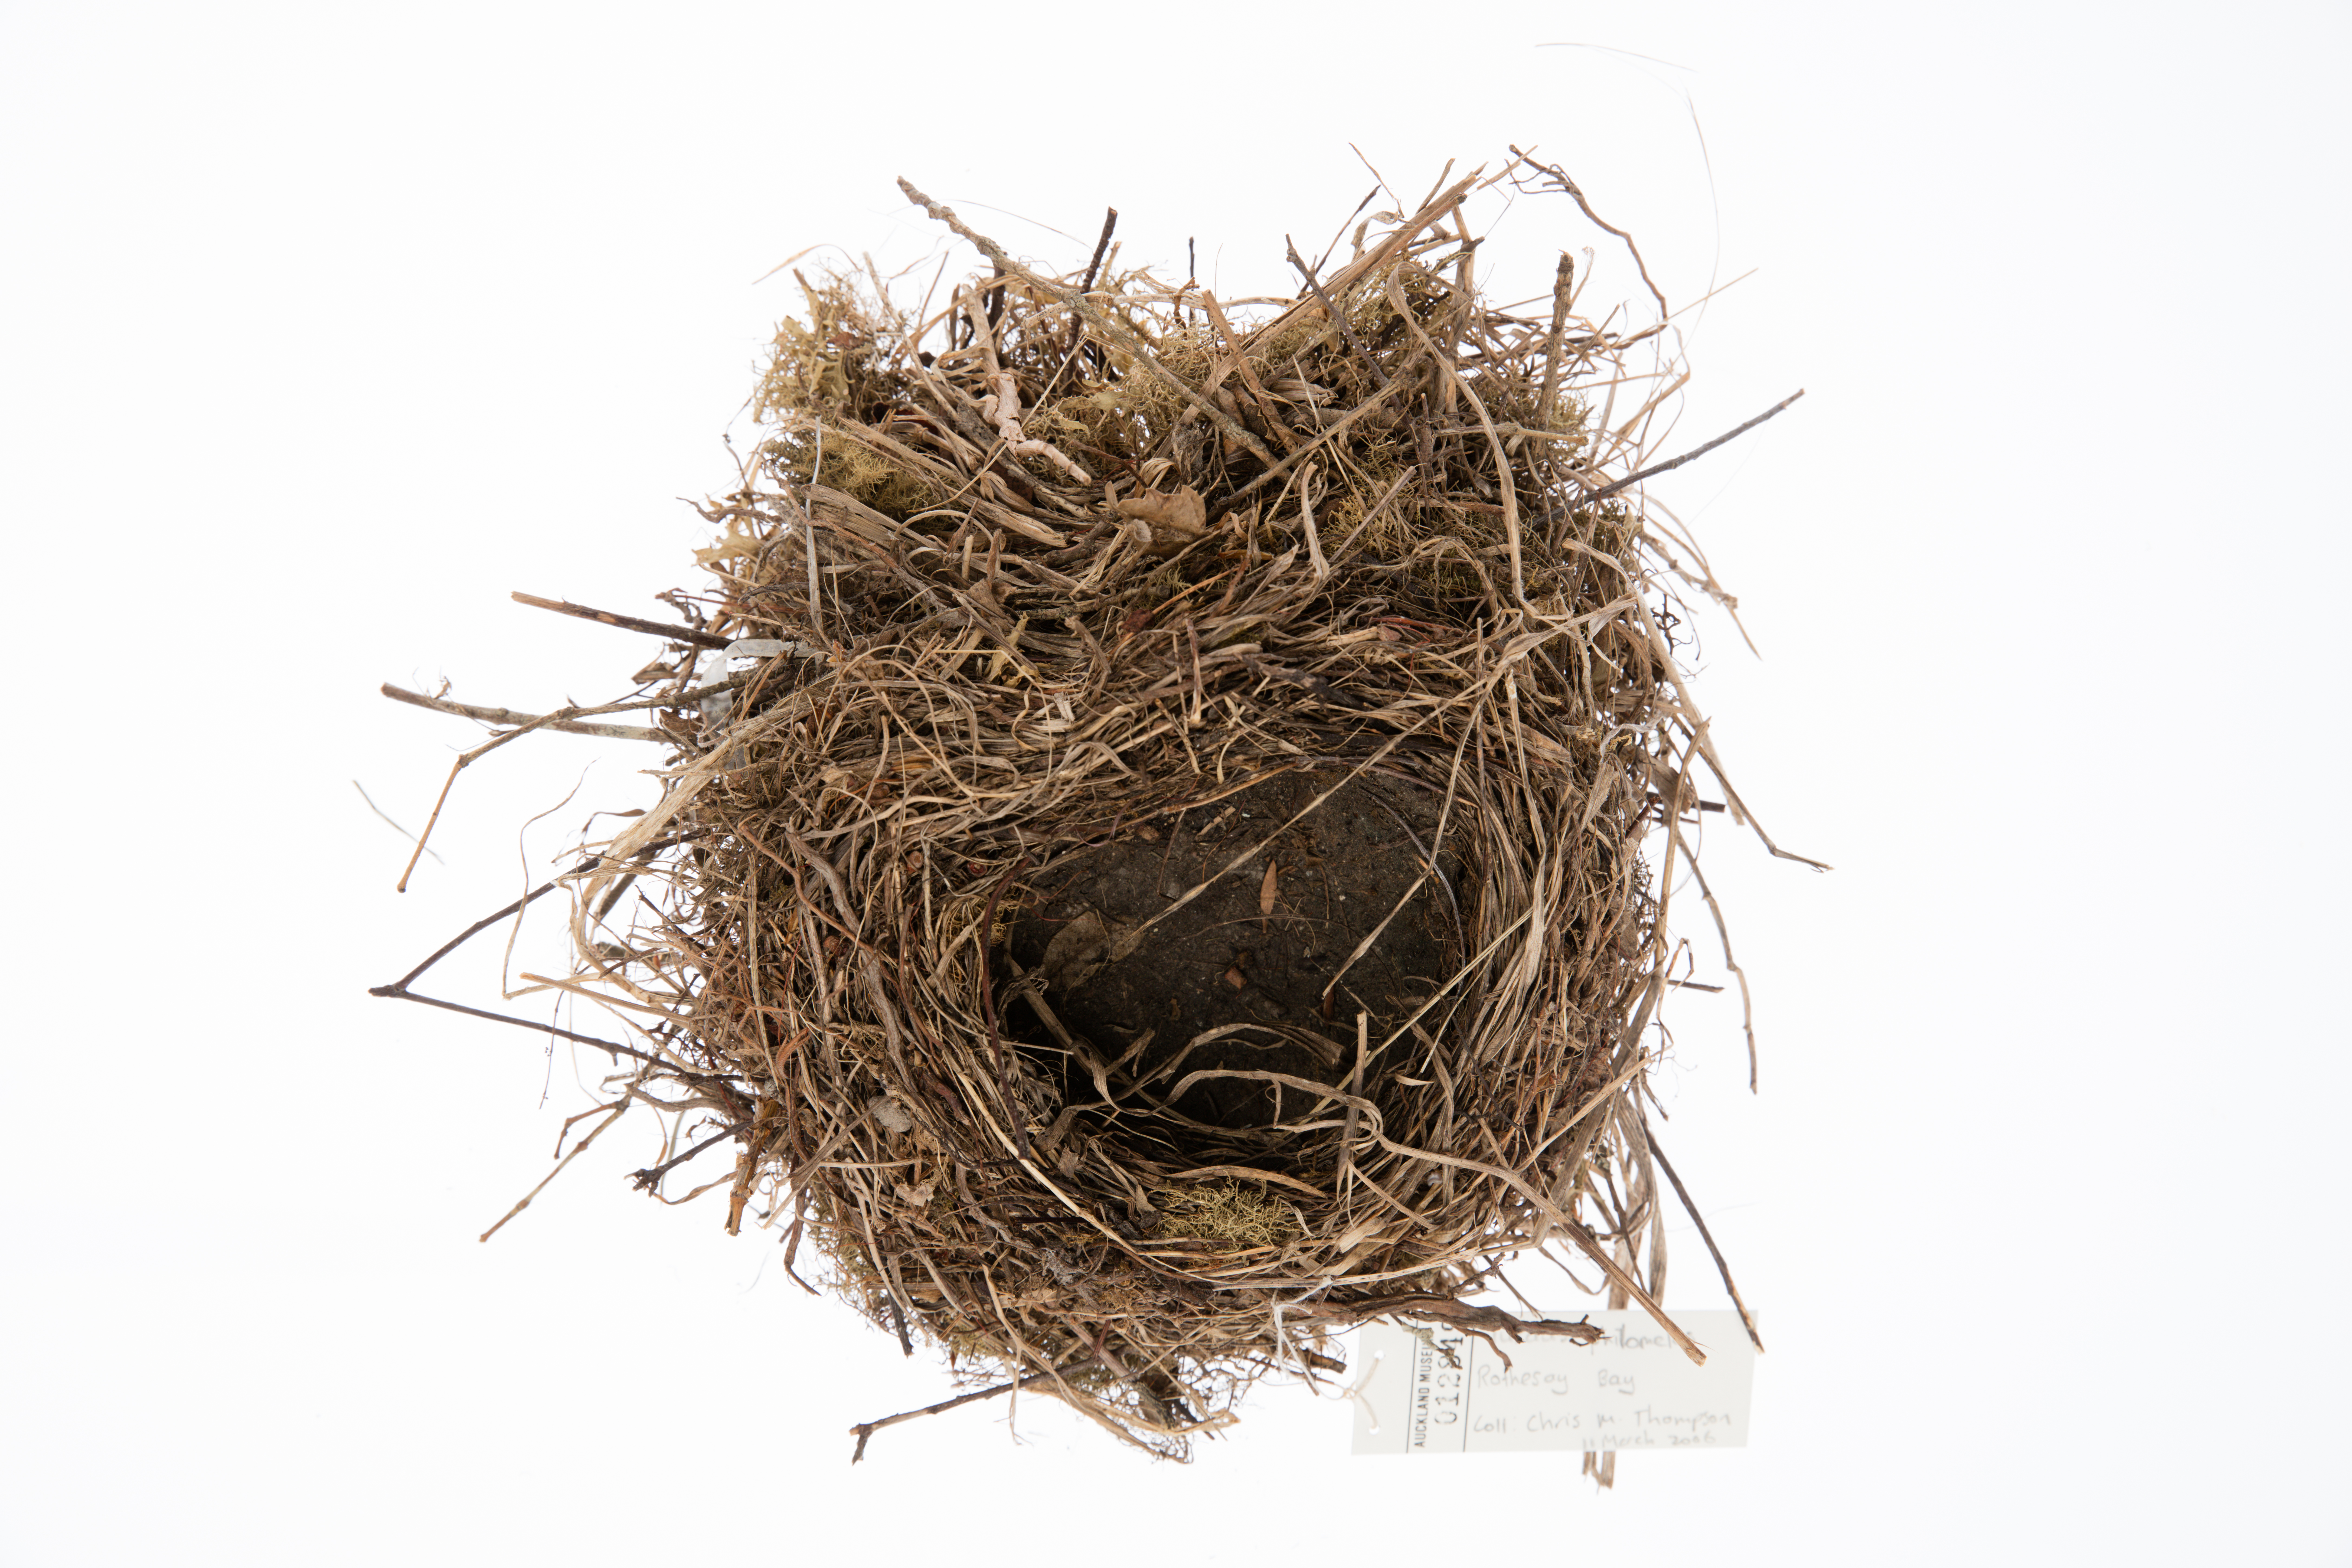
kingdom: Animalia
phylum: Chordata
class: Aves
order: Passeriformes
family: Turdidae
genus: Turdus
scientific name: Turdus philomelos
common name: Song thrush
